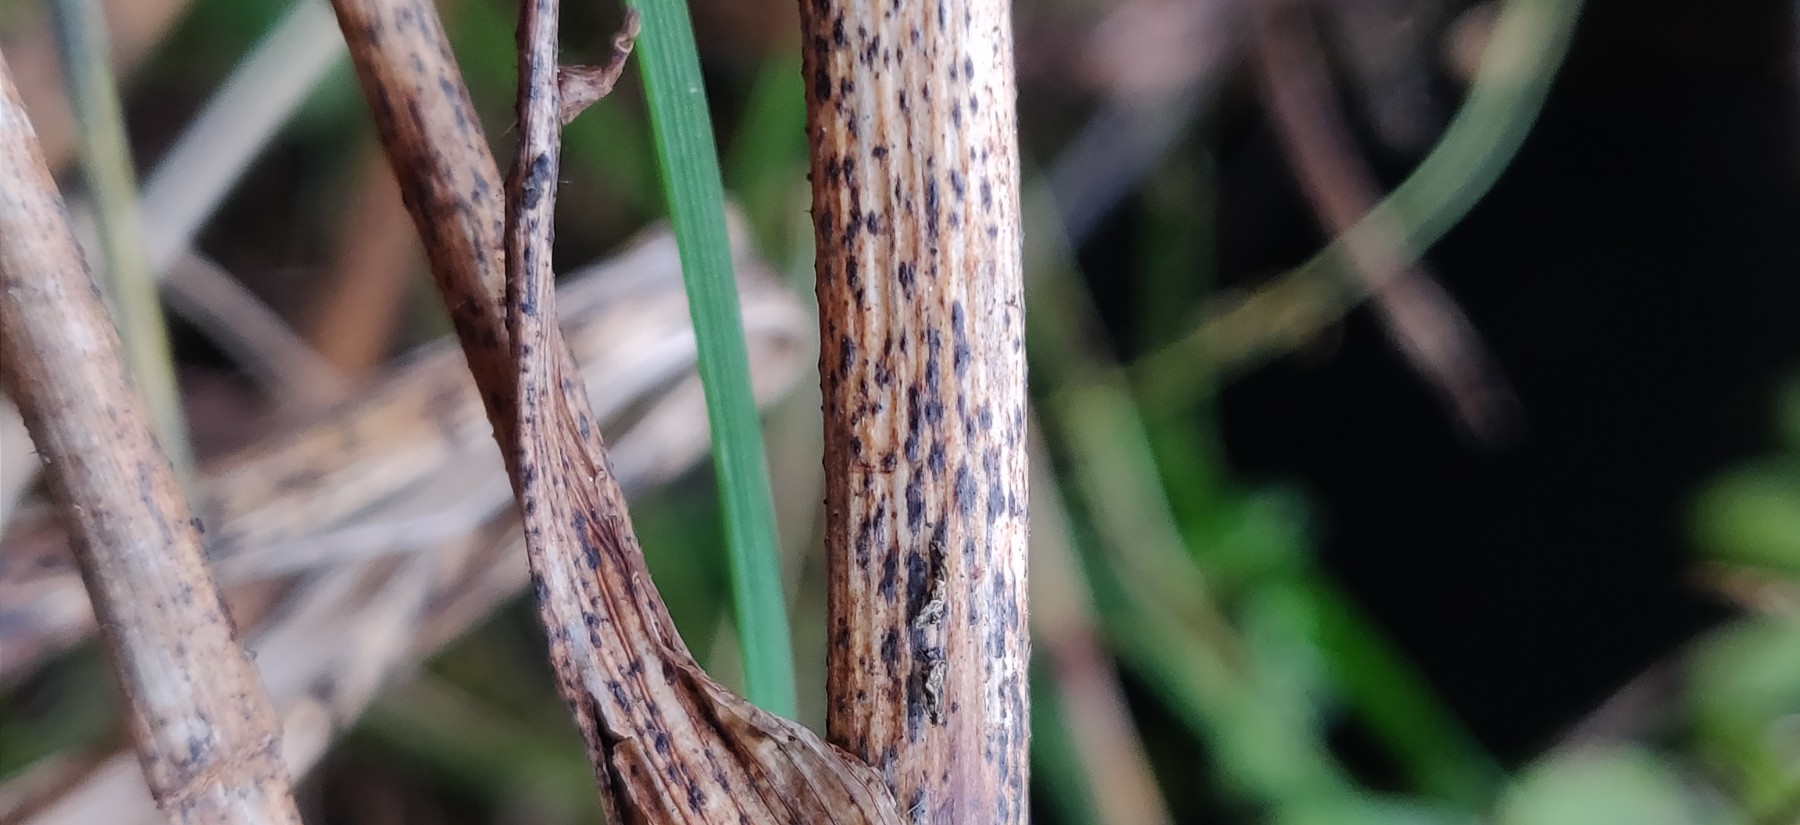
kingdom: Fungi
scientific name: Fungi
